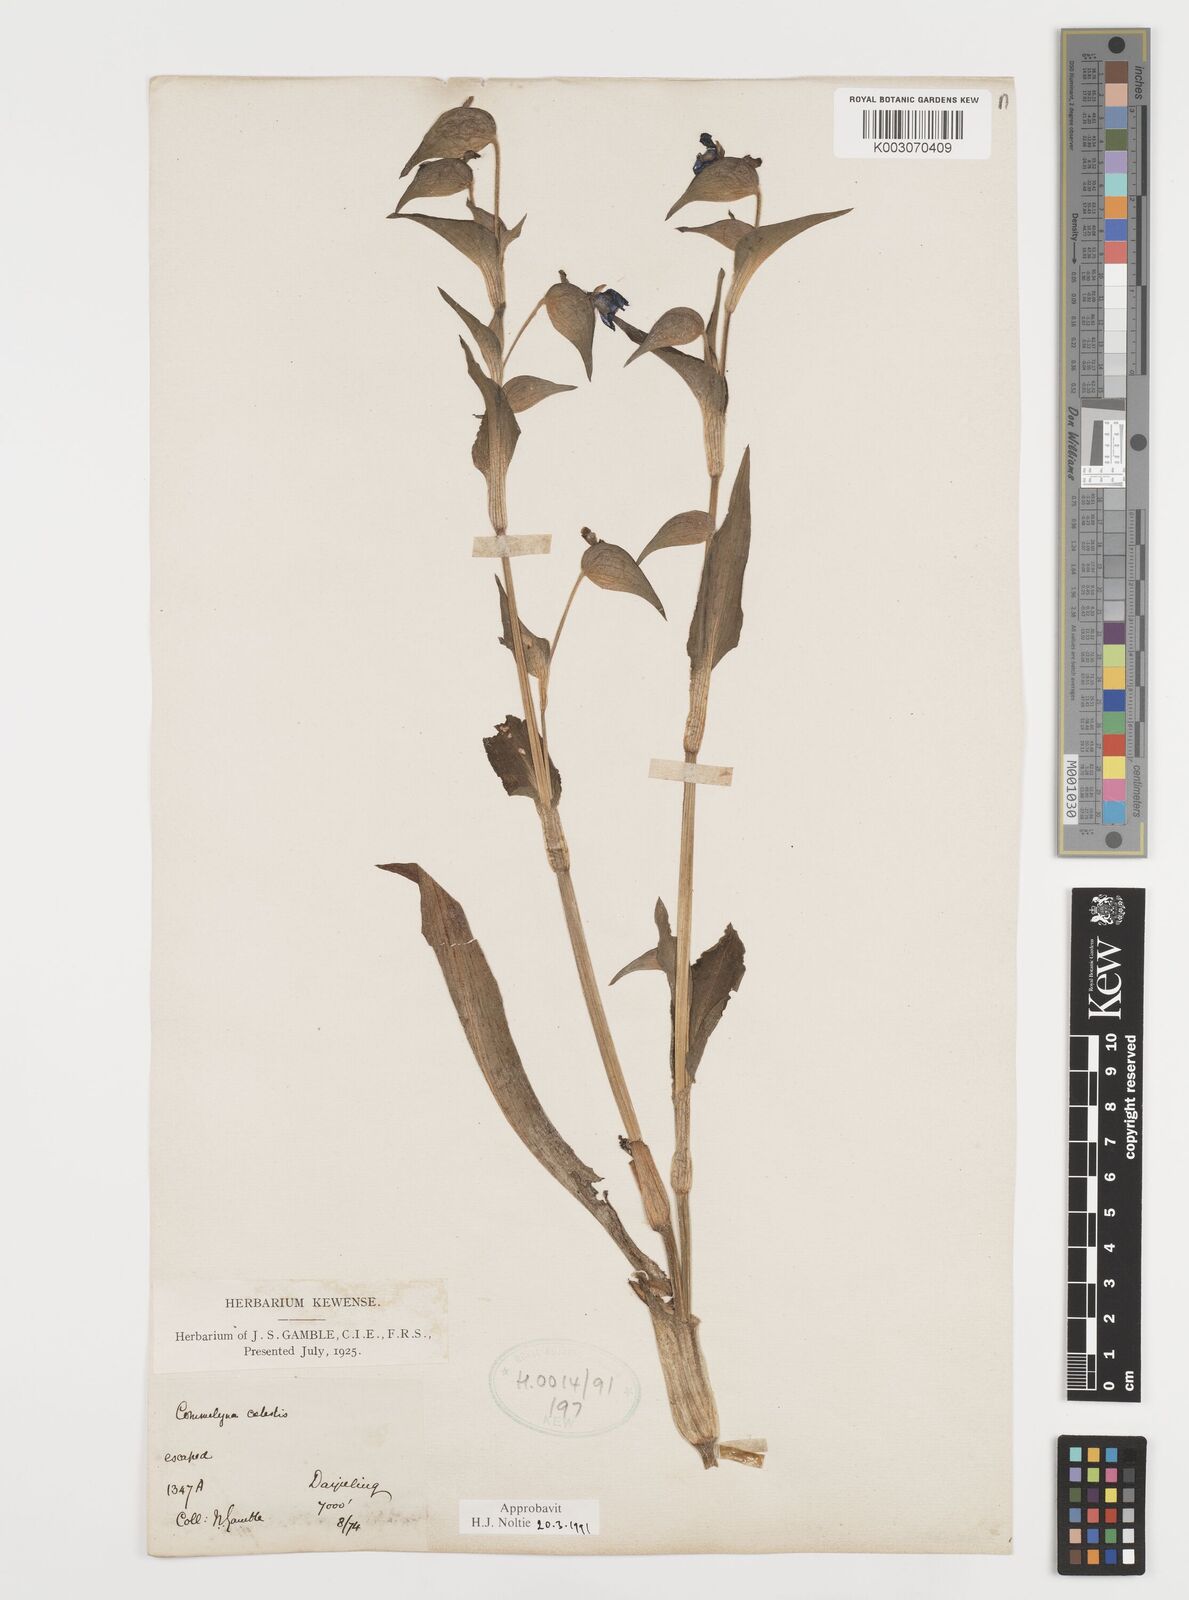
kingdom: Plantae
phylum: Tracheophyta
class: Liliopsida
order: Commelinales
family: Commelinaceae
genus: Commelina
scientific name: Commelina tuberosa
